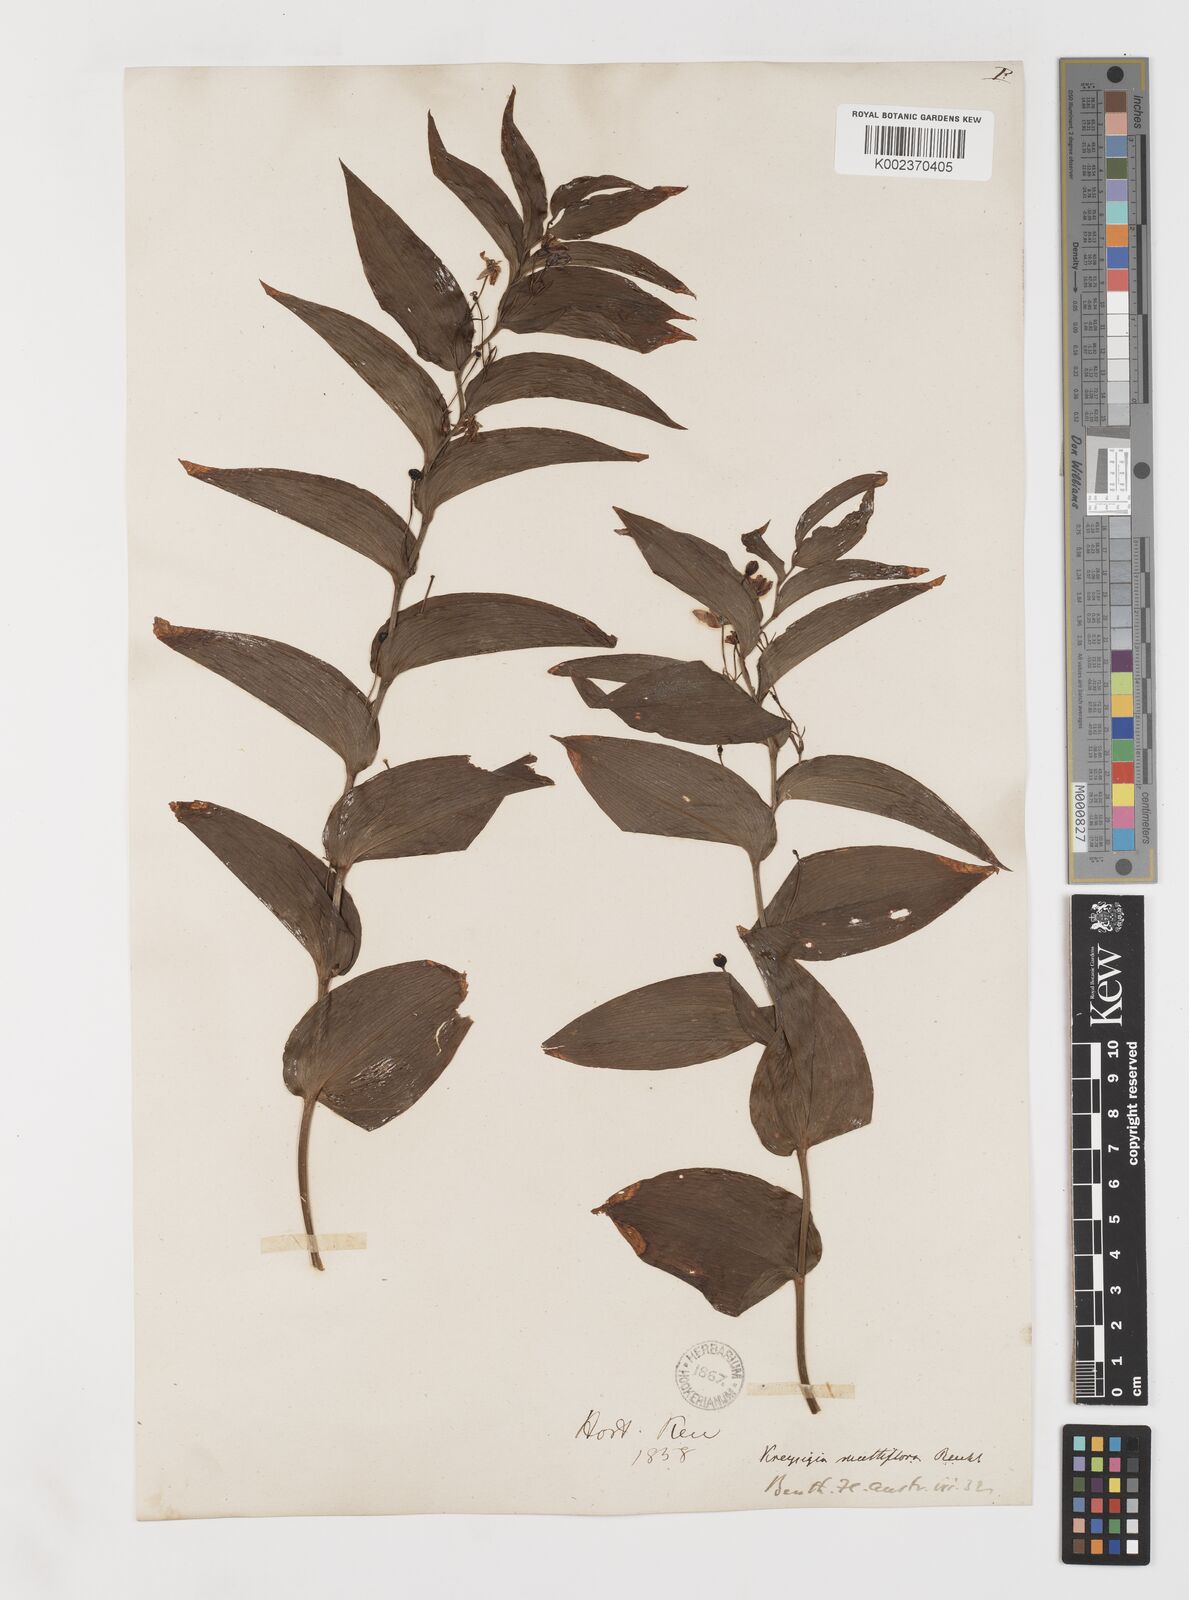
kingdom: Plantae
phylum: Tracheophyta
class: Liliopsida
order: Liliales
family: Colchicaceae
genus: Tripladenia
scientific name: Tripladenia
